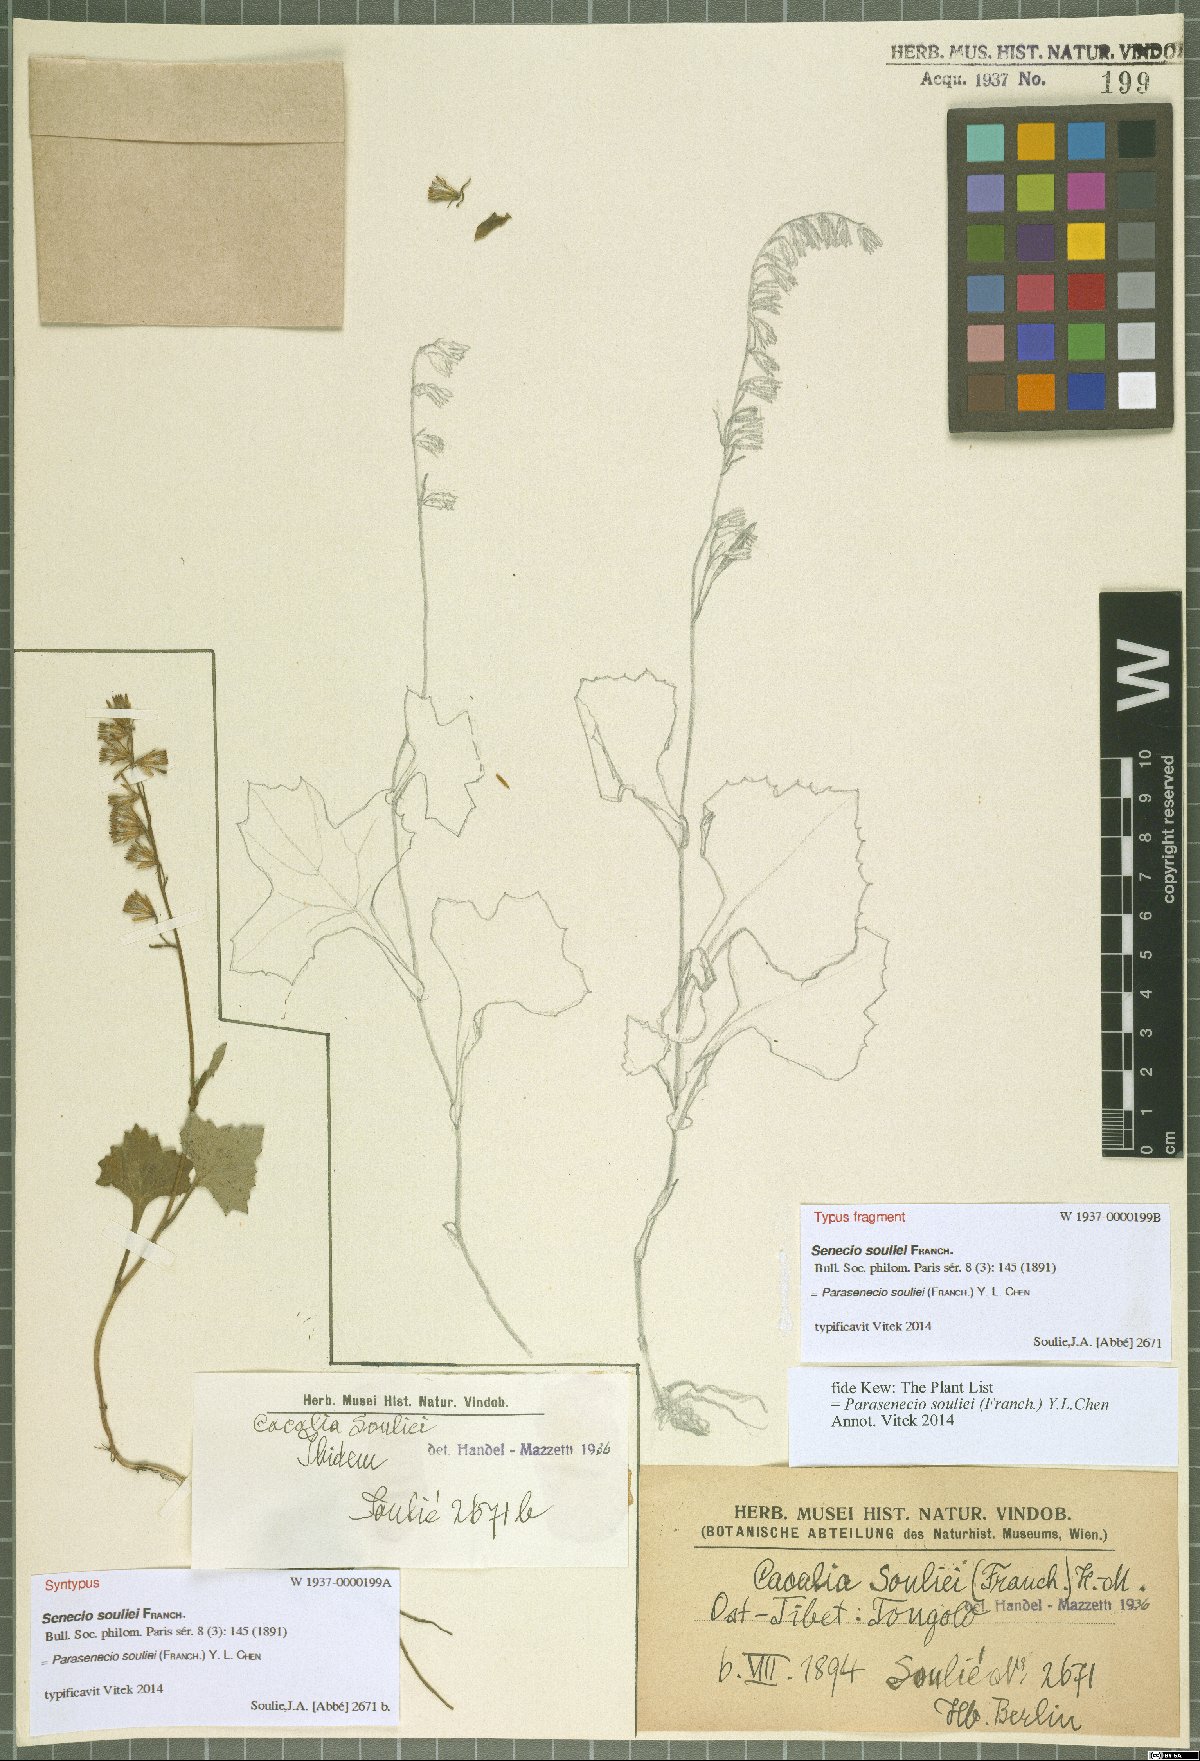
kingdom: Plantae
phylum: Tracheophyta
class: Magnoliopsida
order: Asterales
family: Asteraceae
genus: Parasenecio
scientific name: Parasenecio souliei
